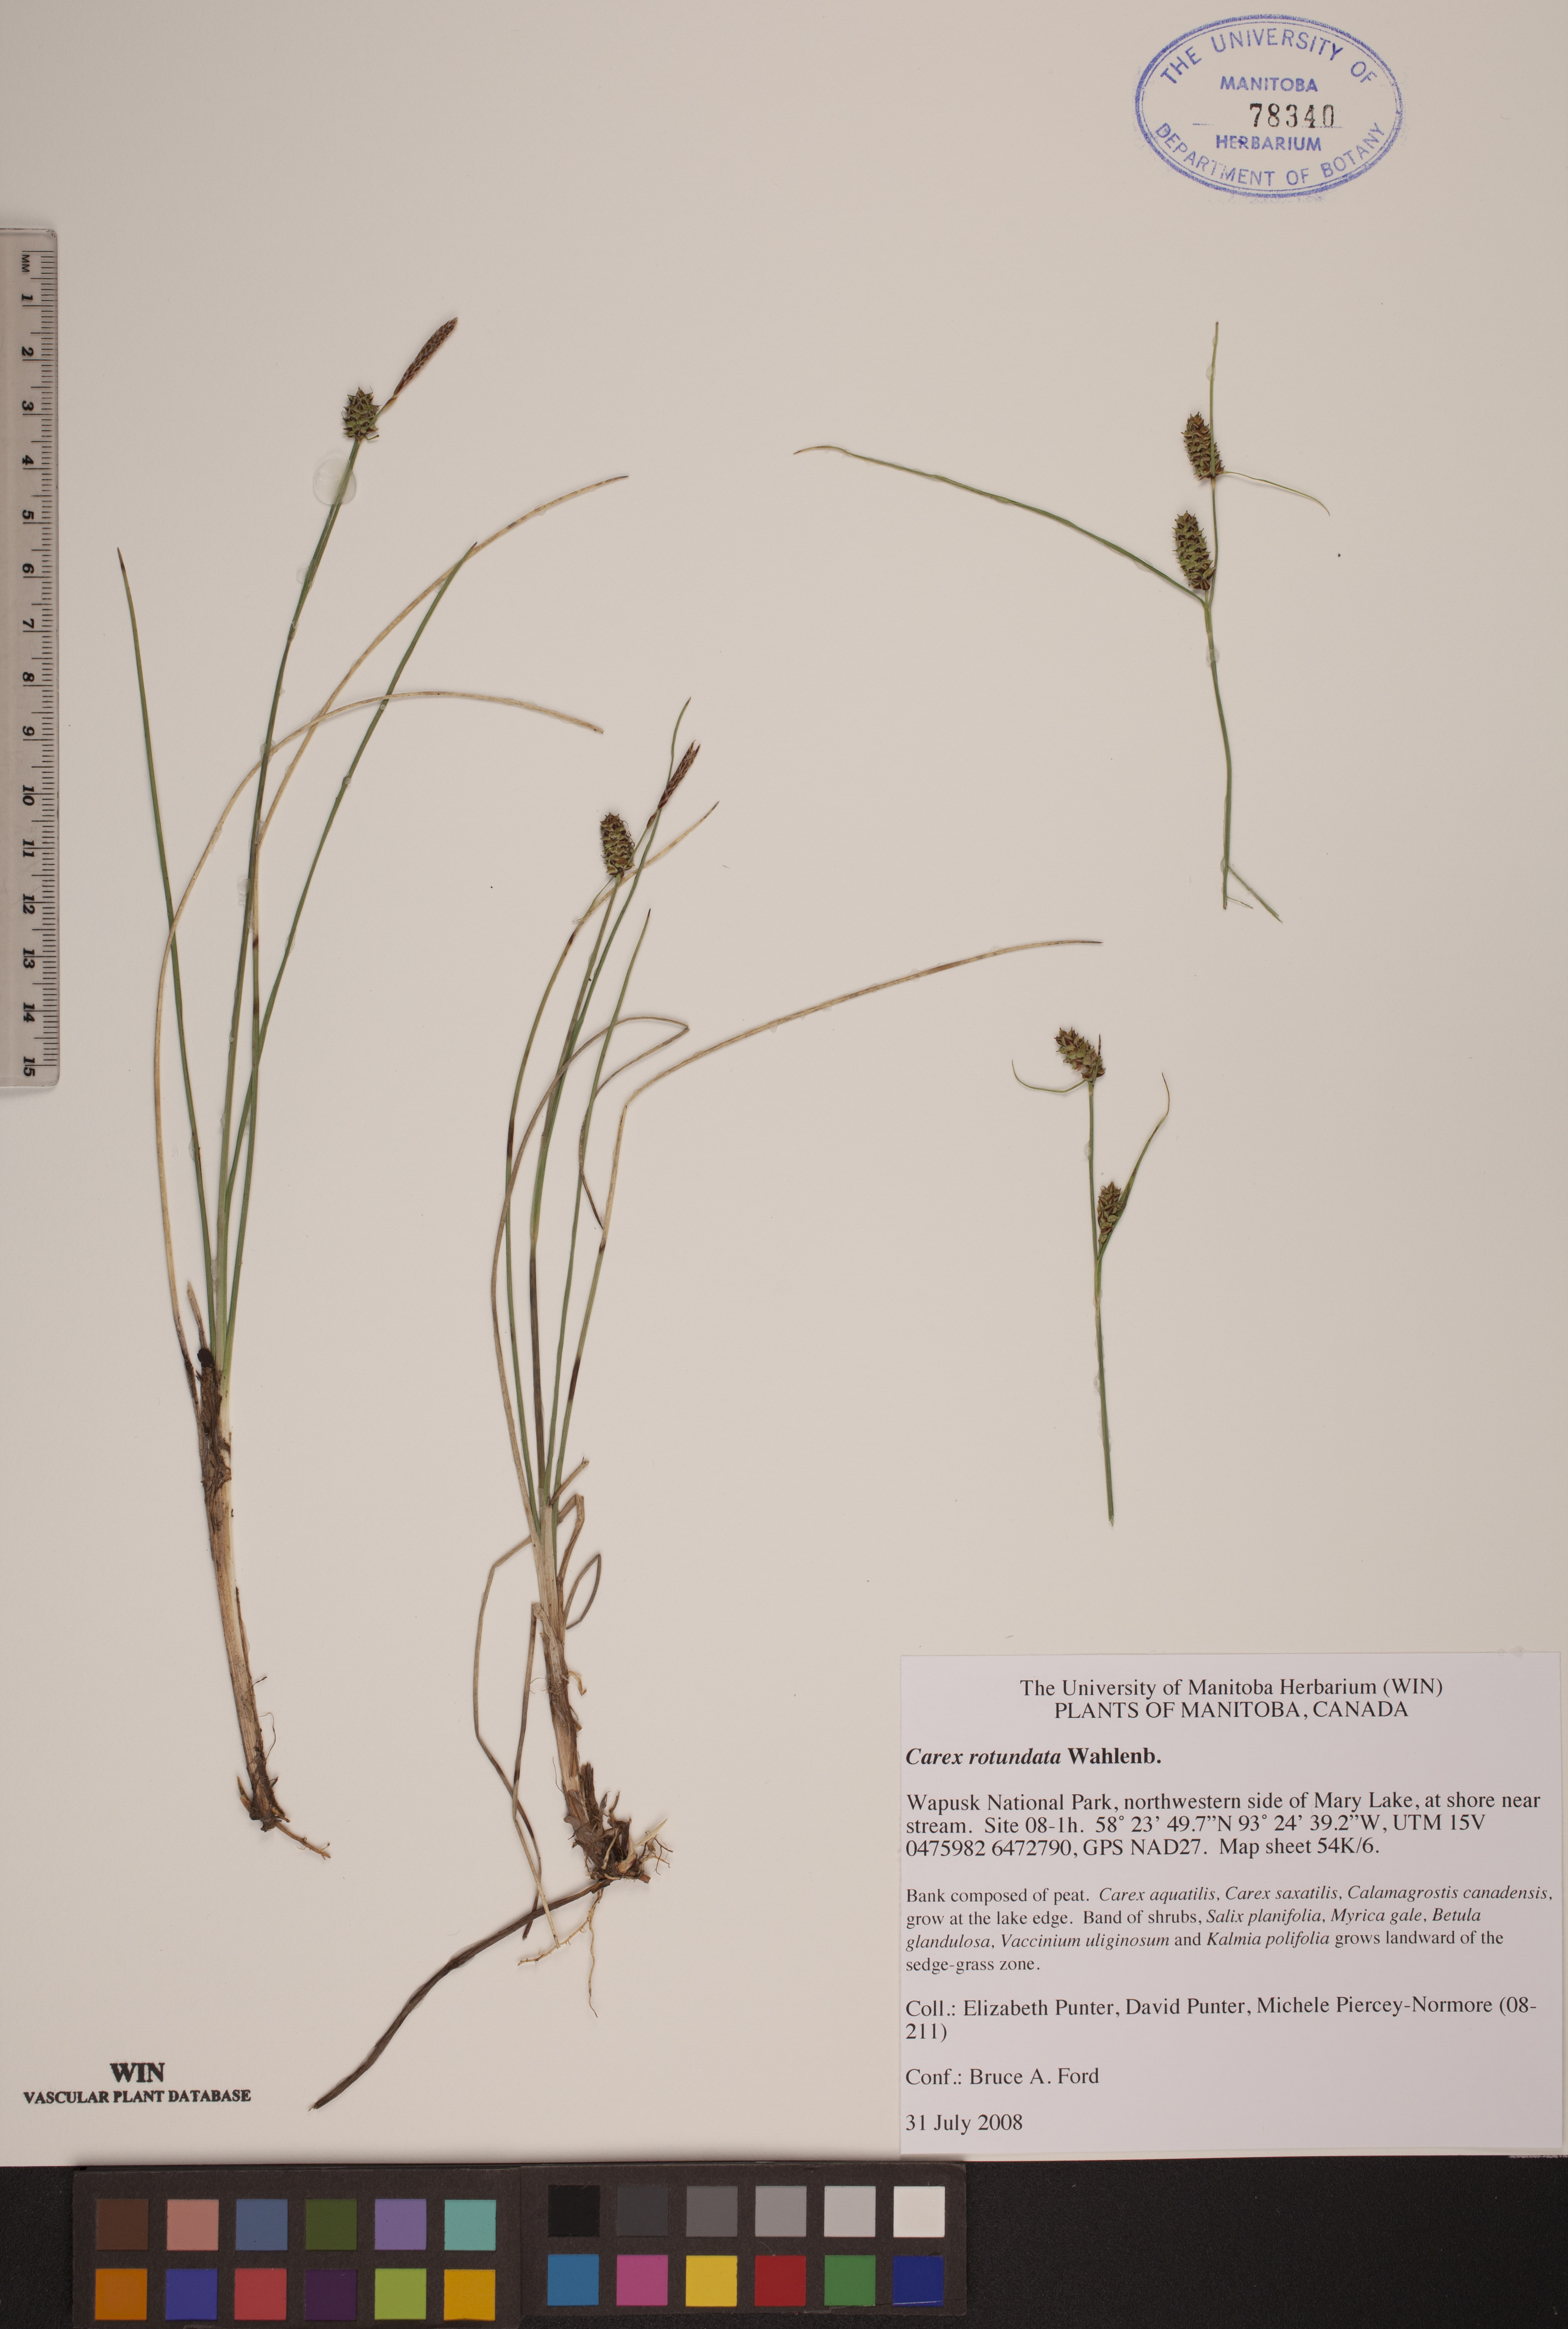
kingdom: Plantae
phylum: Tracheophyta
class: Liliopsida
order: Poales
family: Cyperaceae
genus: Carex
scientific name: Carex rotundata
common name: Round-fruited sedge
